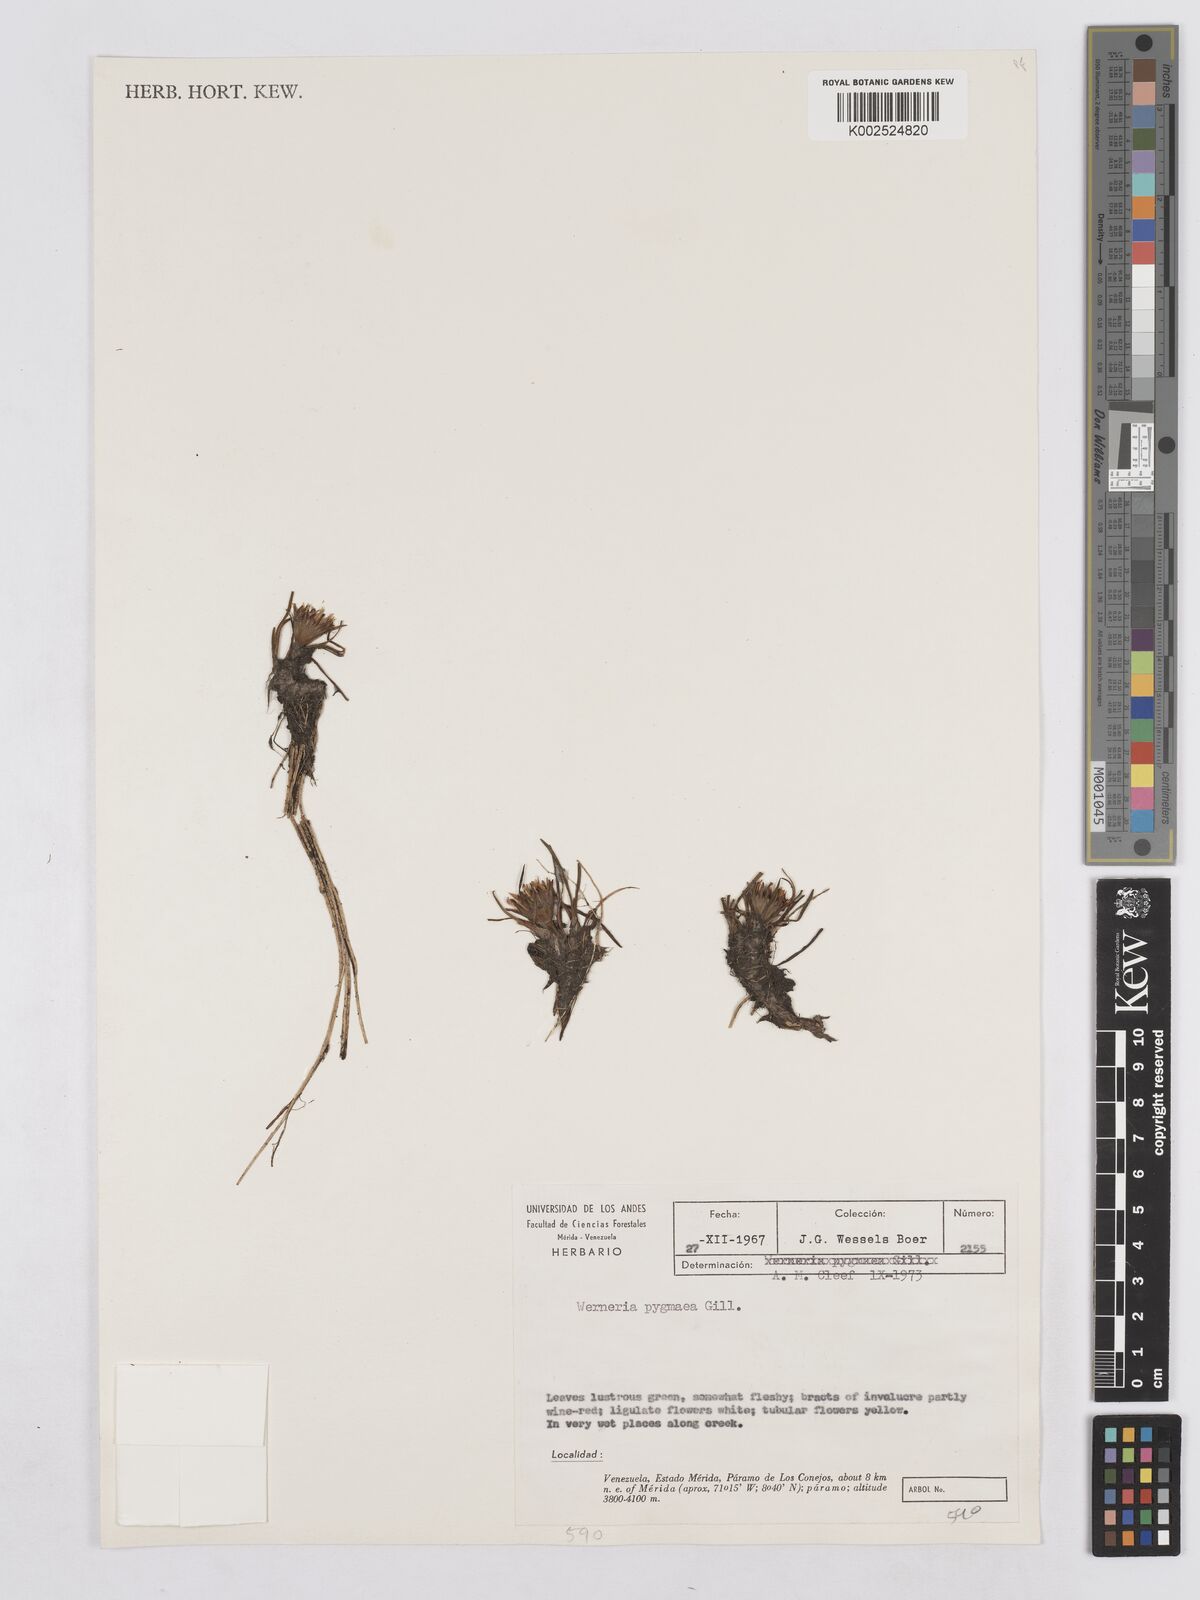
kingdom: Plantae
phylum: Tracheophyta
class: Magnoliopsida
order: Asterales
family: Asteraceae
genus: Rockhausenia
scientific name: Rockhausenia pygmaea
